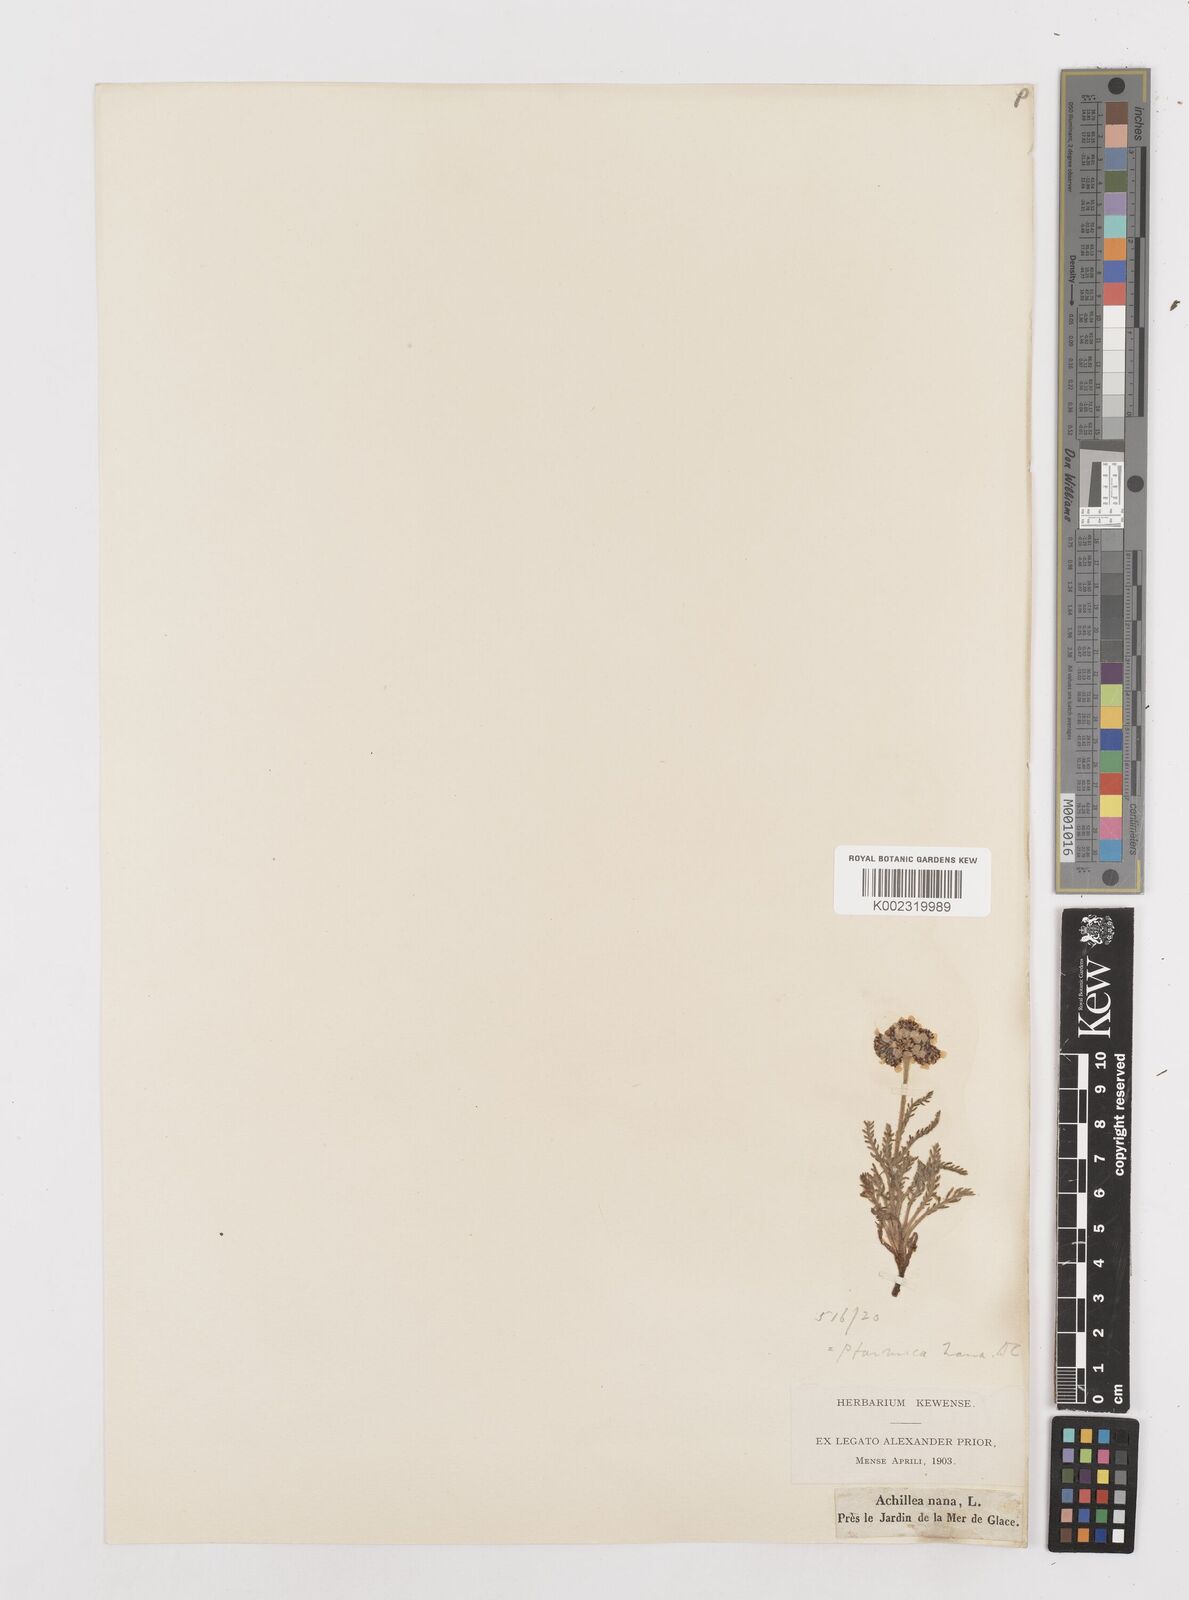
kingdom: Plantae
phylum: Tracheophyta
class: Magnoliopsida
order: Asterales
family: Asteraceae
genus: Achillea
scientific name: Achillea nana
